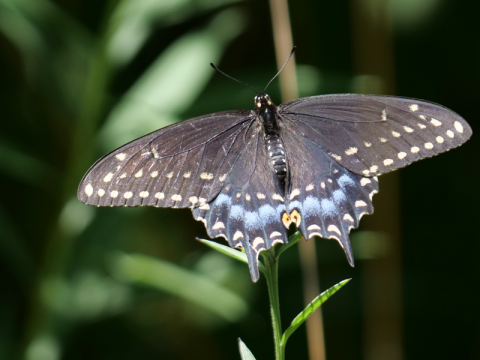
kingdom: Animalia
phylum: Arthropoda
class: Insecta
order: Lepidoptera
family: Papilionidae
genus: Papilio
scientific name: Papilio polyxenes
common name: Black Swallowtail
